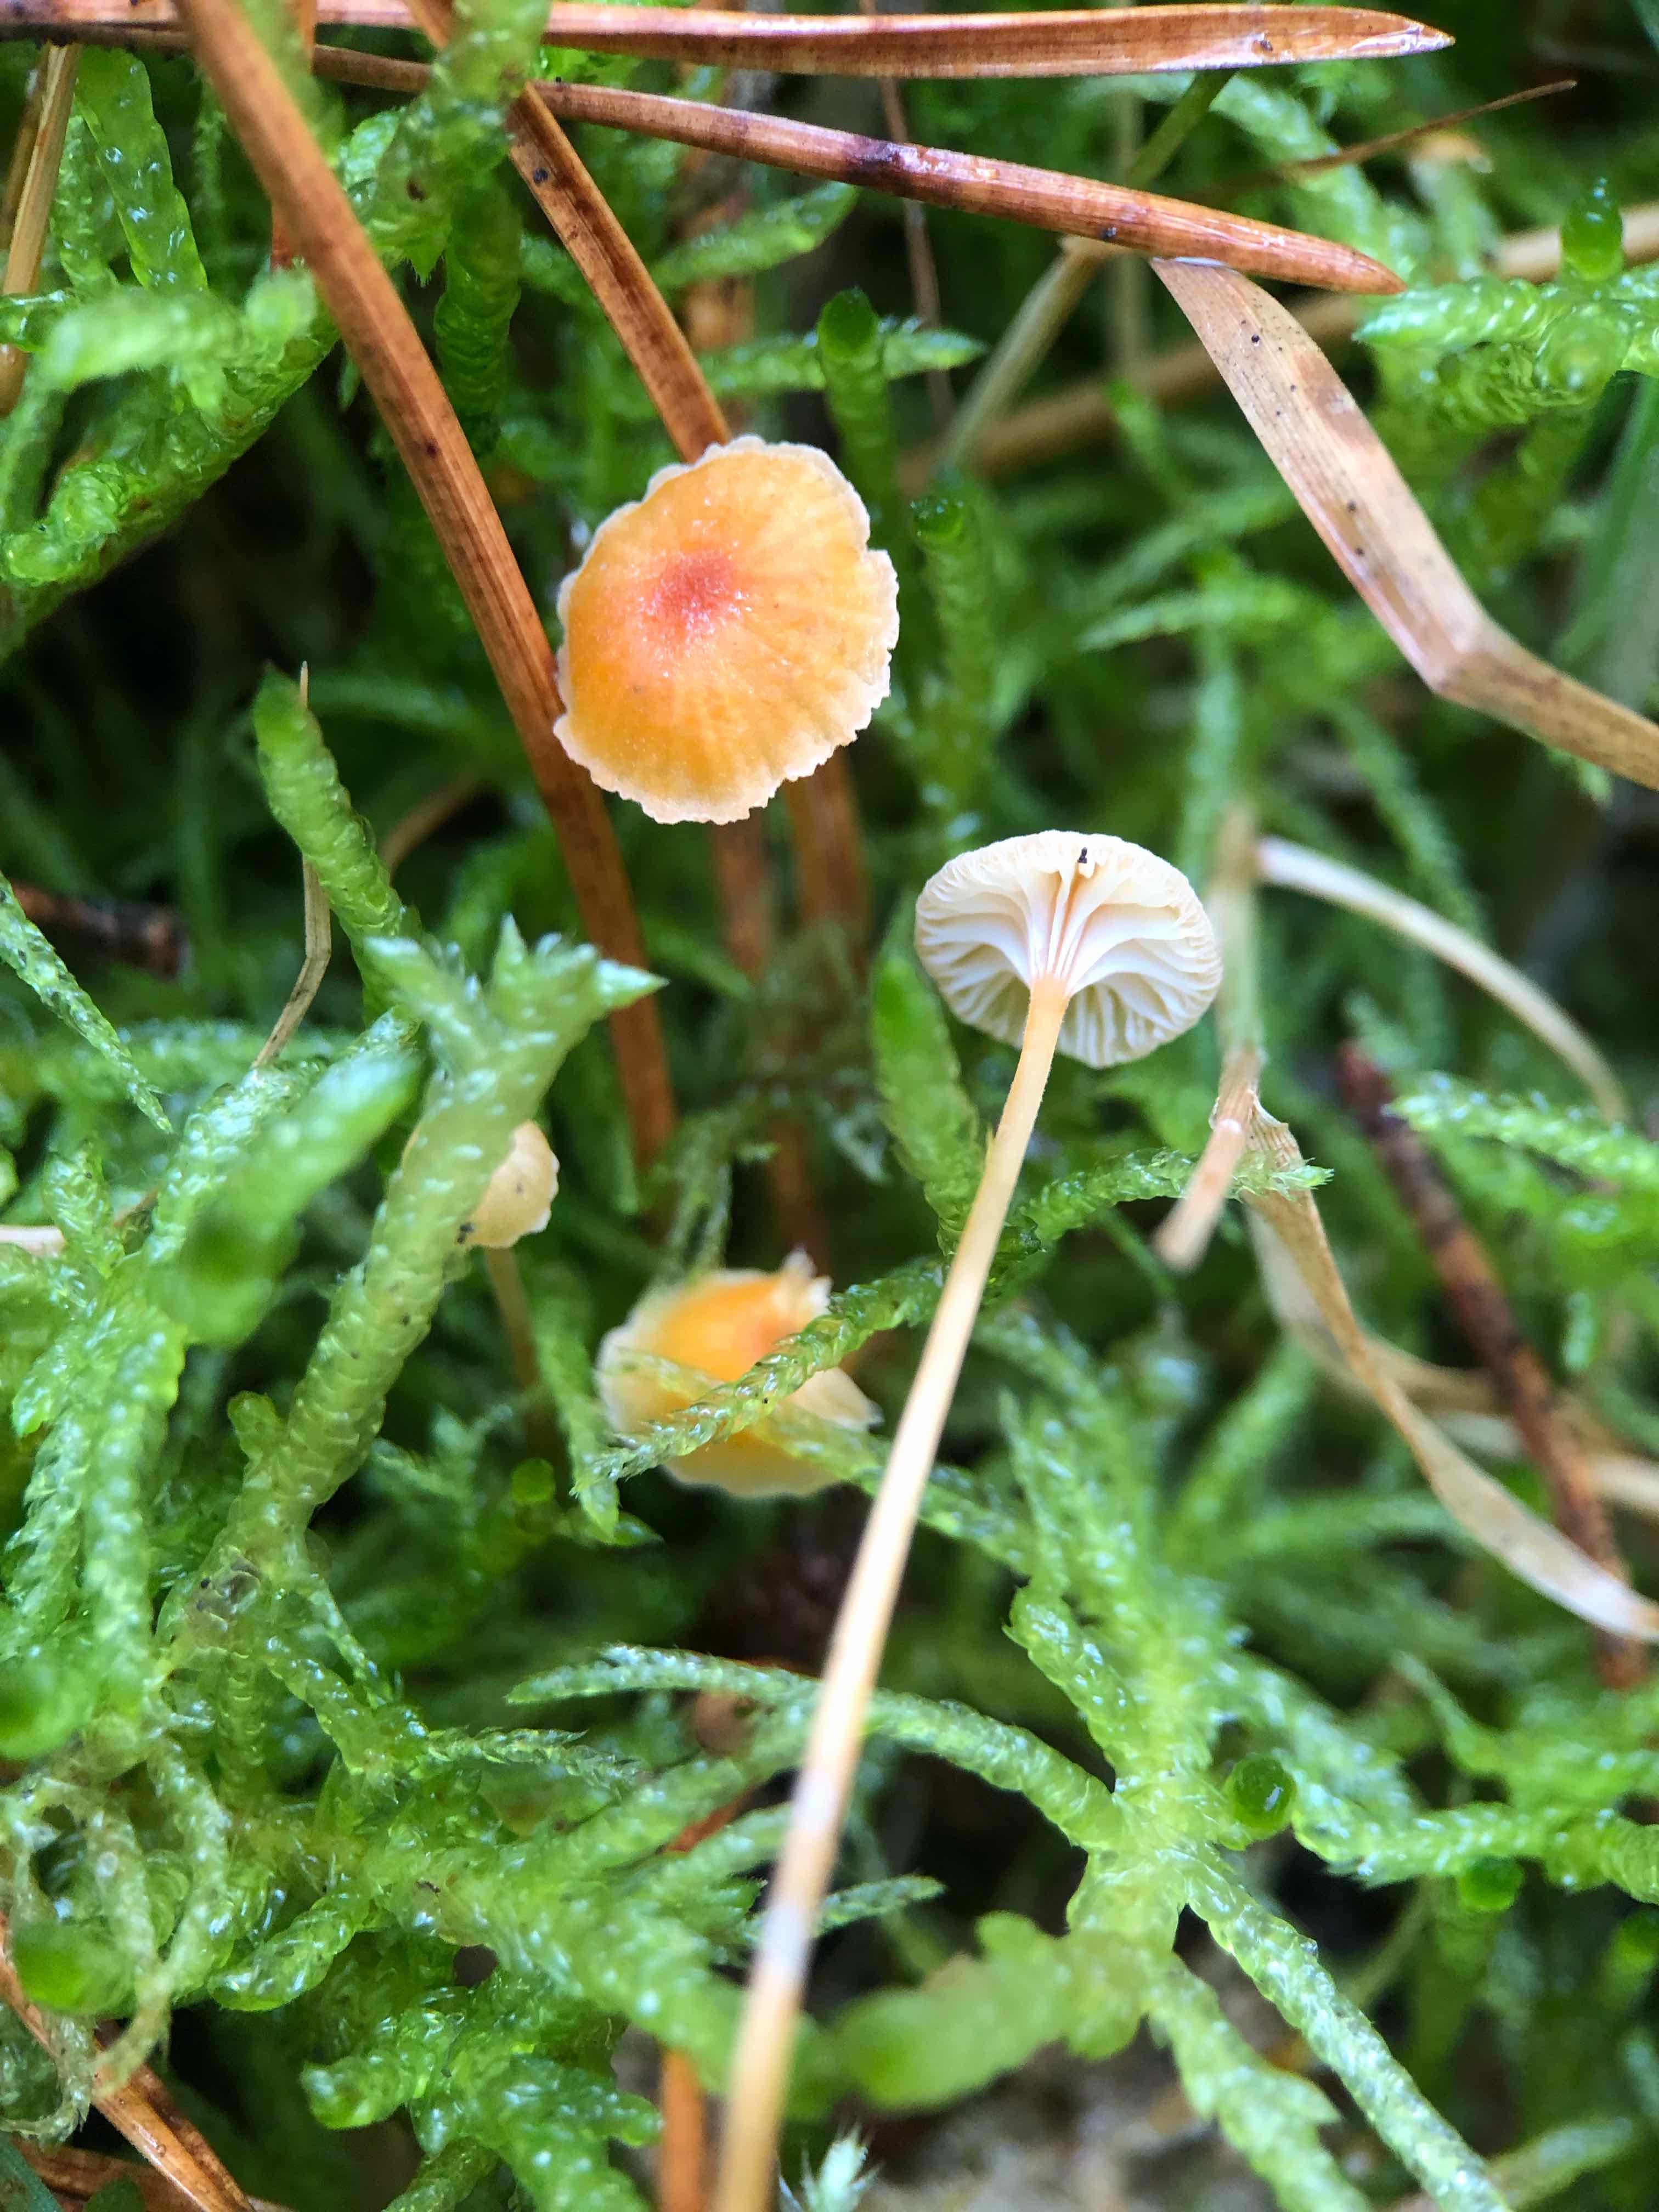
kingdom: Fungi
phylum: Basidiomycota
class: Agaricomycetes
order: Hymenochaetales
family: Rickenellaceae
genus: Rickenella
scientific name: Rickenella fibula
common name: orange mosnavlehat
